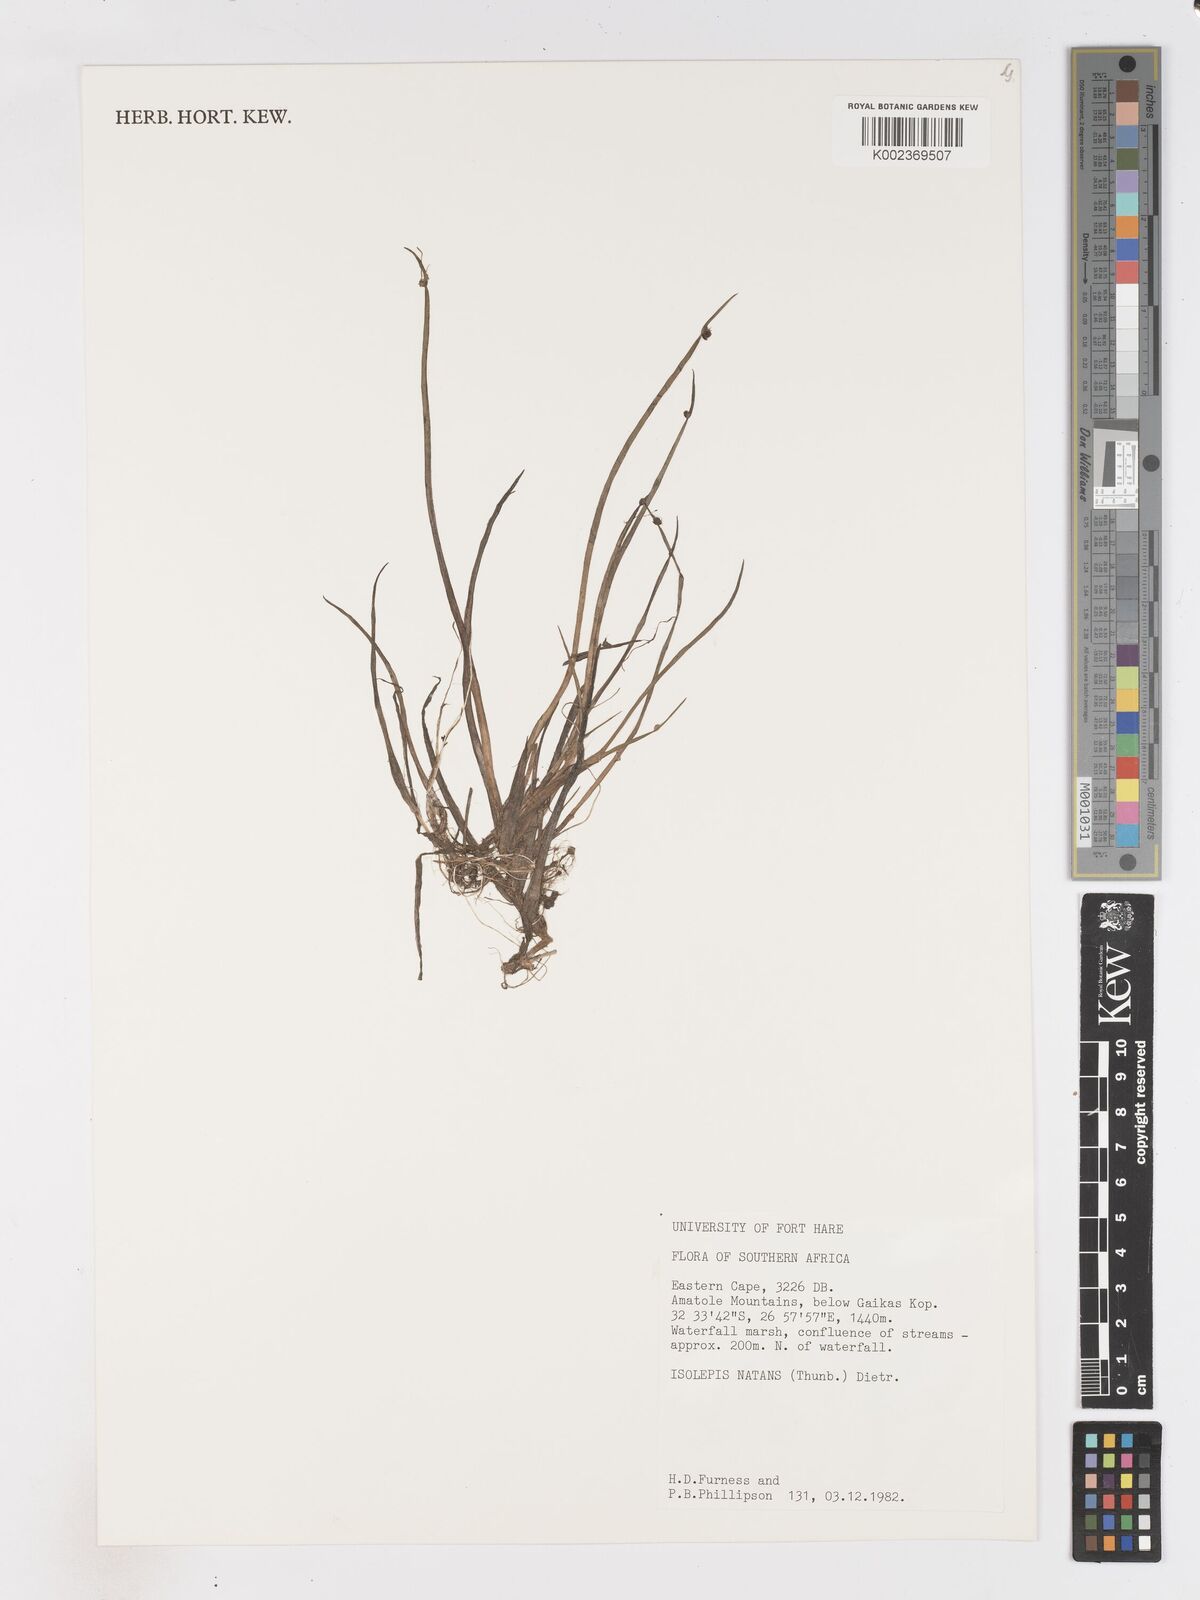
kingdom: Plantae
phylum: Tracheophyta
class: Liliopsida
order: Poales
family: Cyperaceae
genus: Isolepis
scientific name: Isolepis natans
